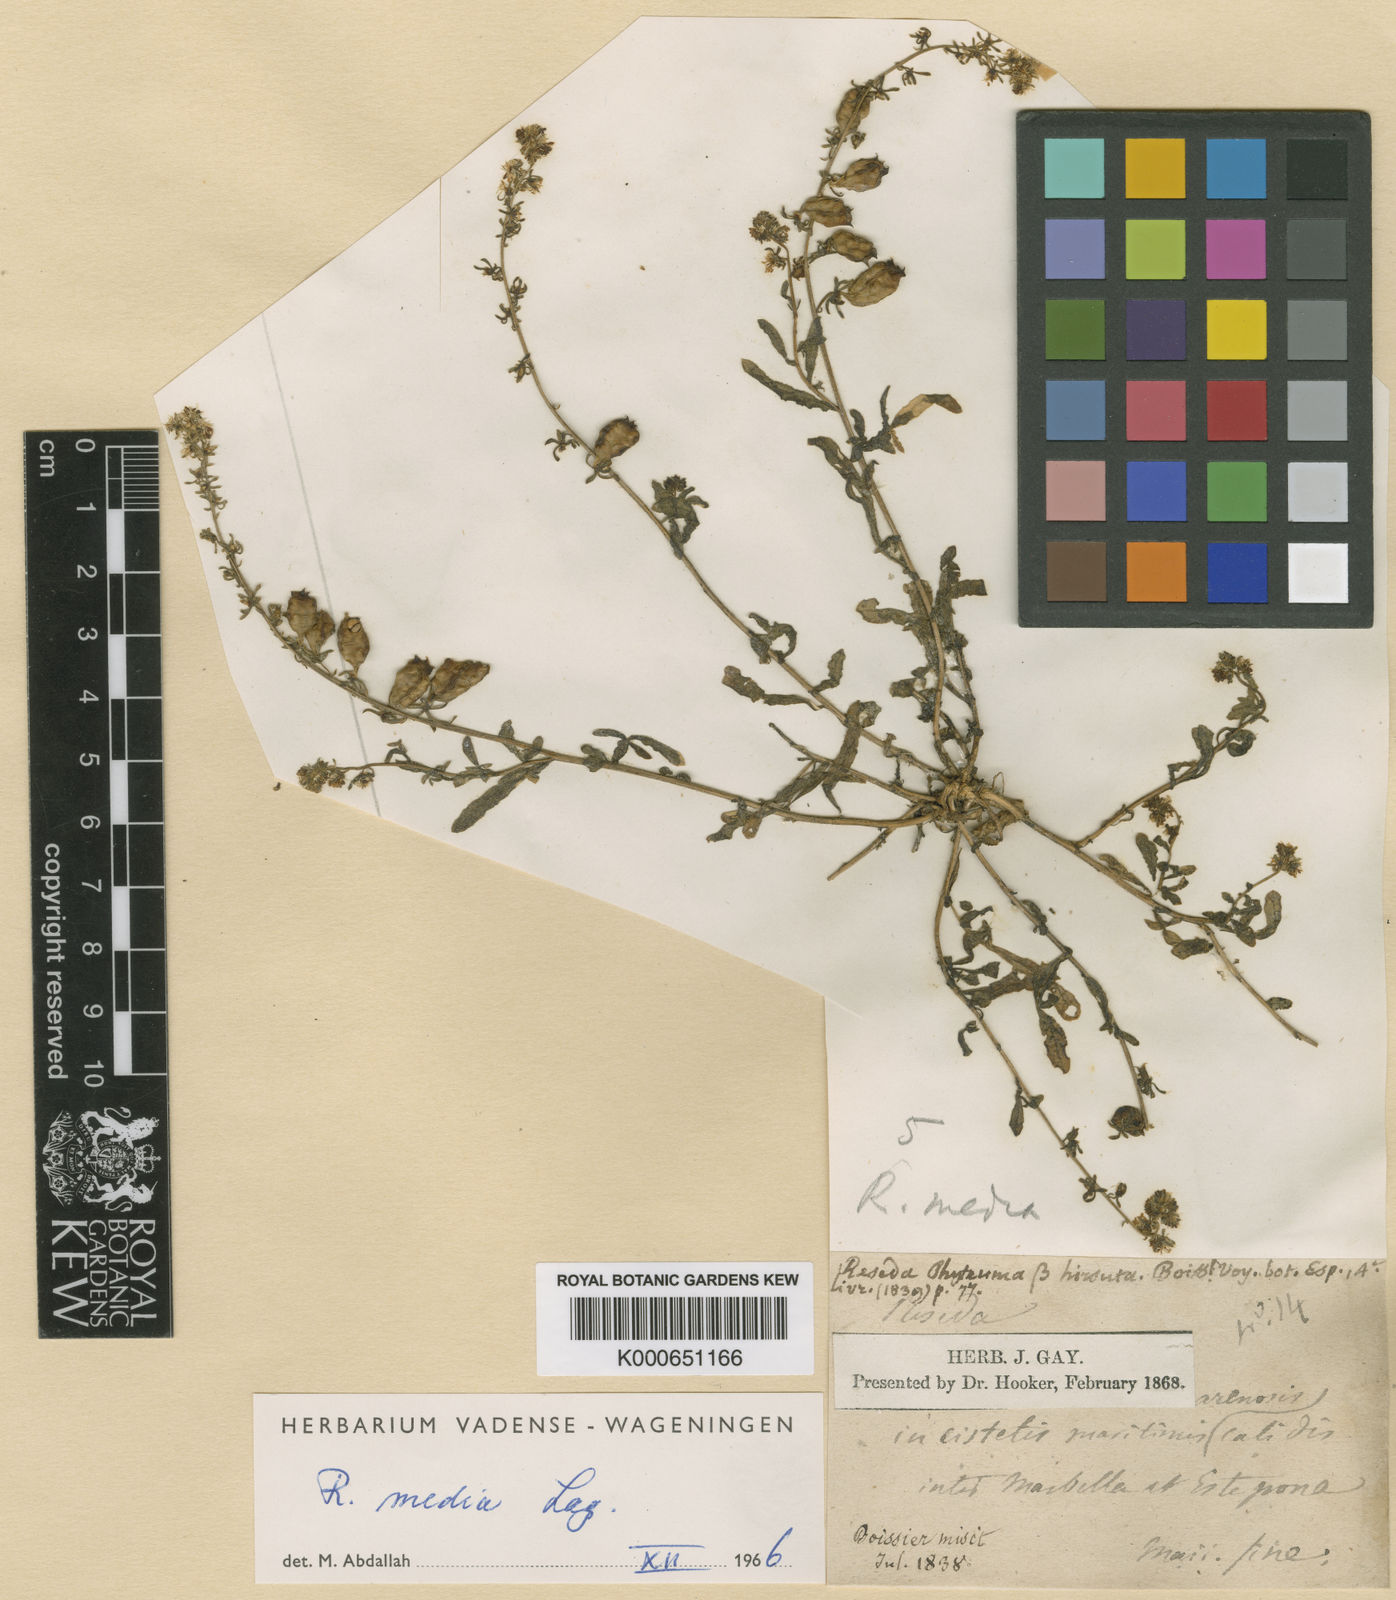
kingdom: Plantae
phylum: Tracheophyta
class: Magnoliopsida
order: Brassicales
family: Resedaceae
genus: Reseda
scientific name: Reseda media
